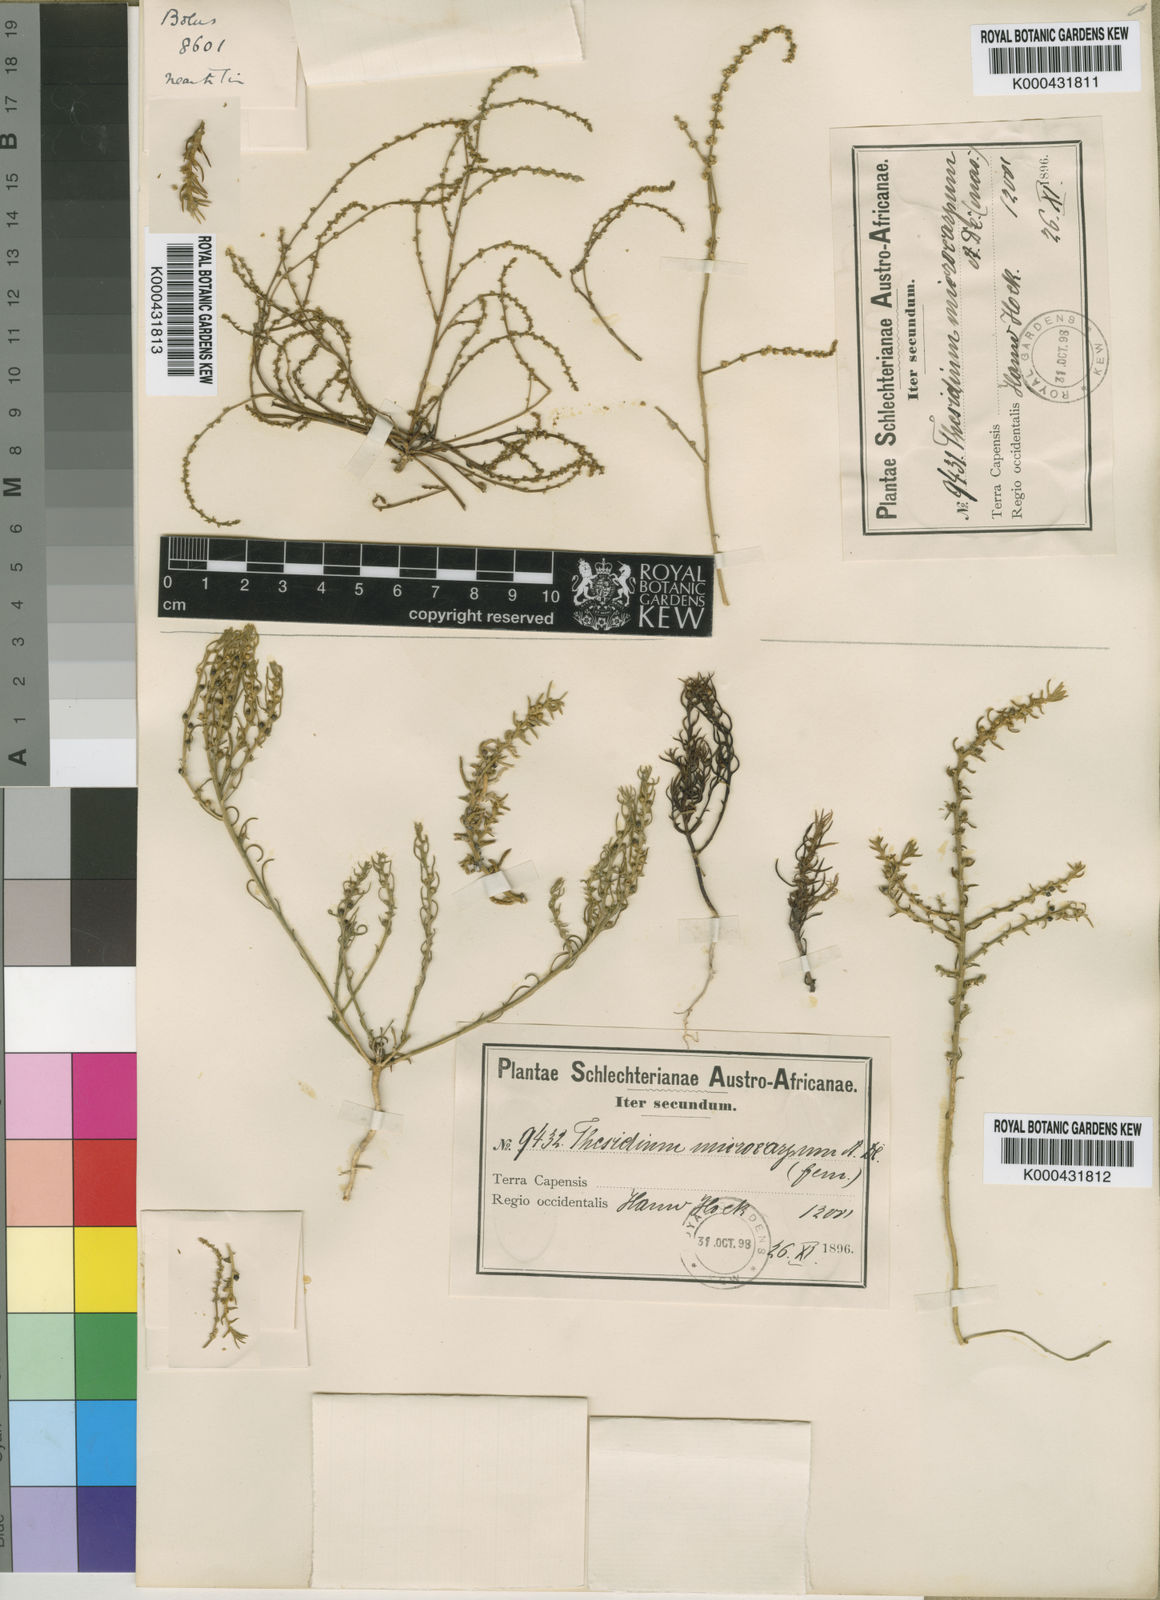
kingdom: Plantae
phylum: Tracheophyta
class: Magnoliopsida
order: Santalales
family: Thesiaceae
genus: Thesium
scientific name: Thesium minus
